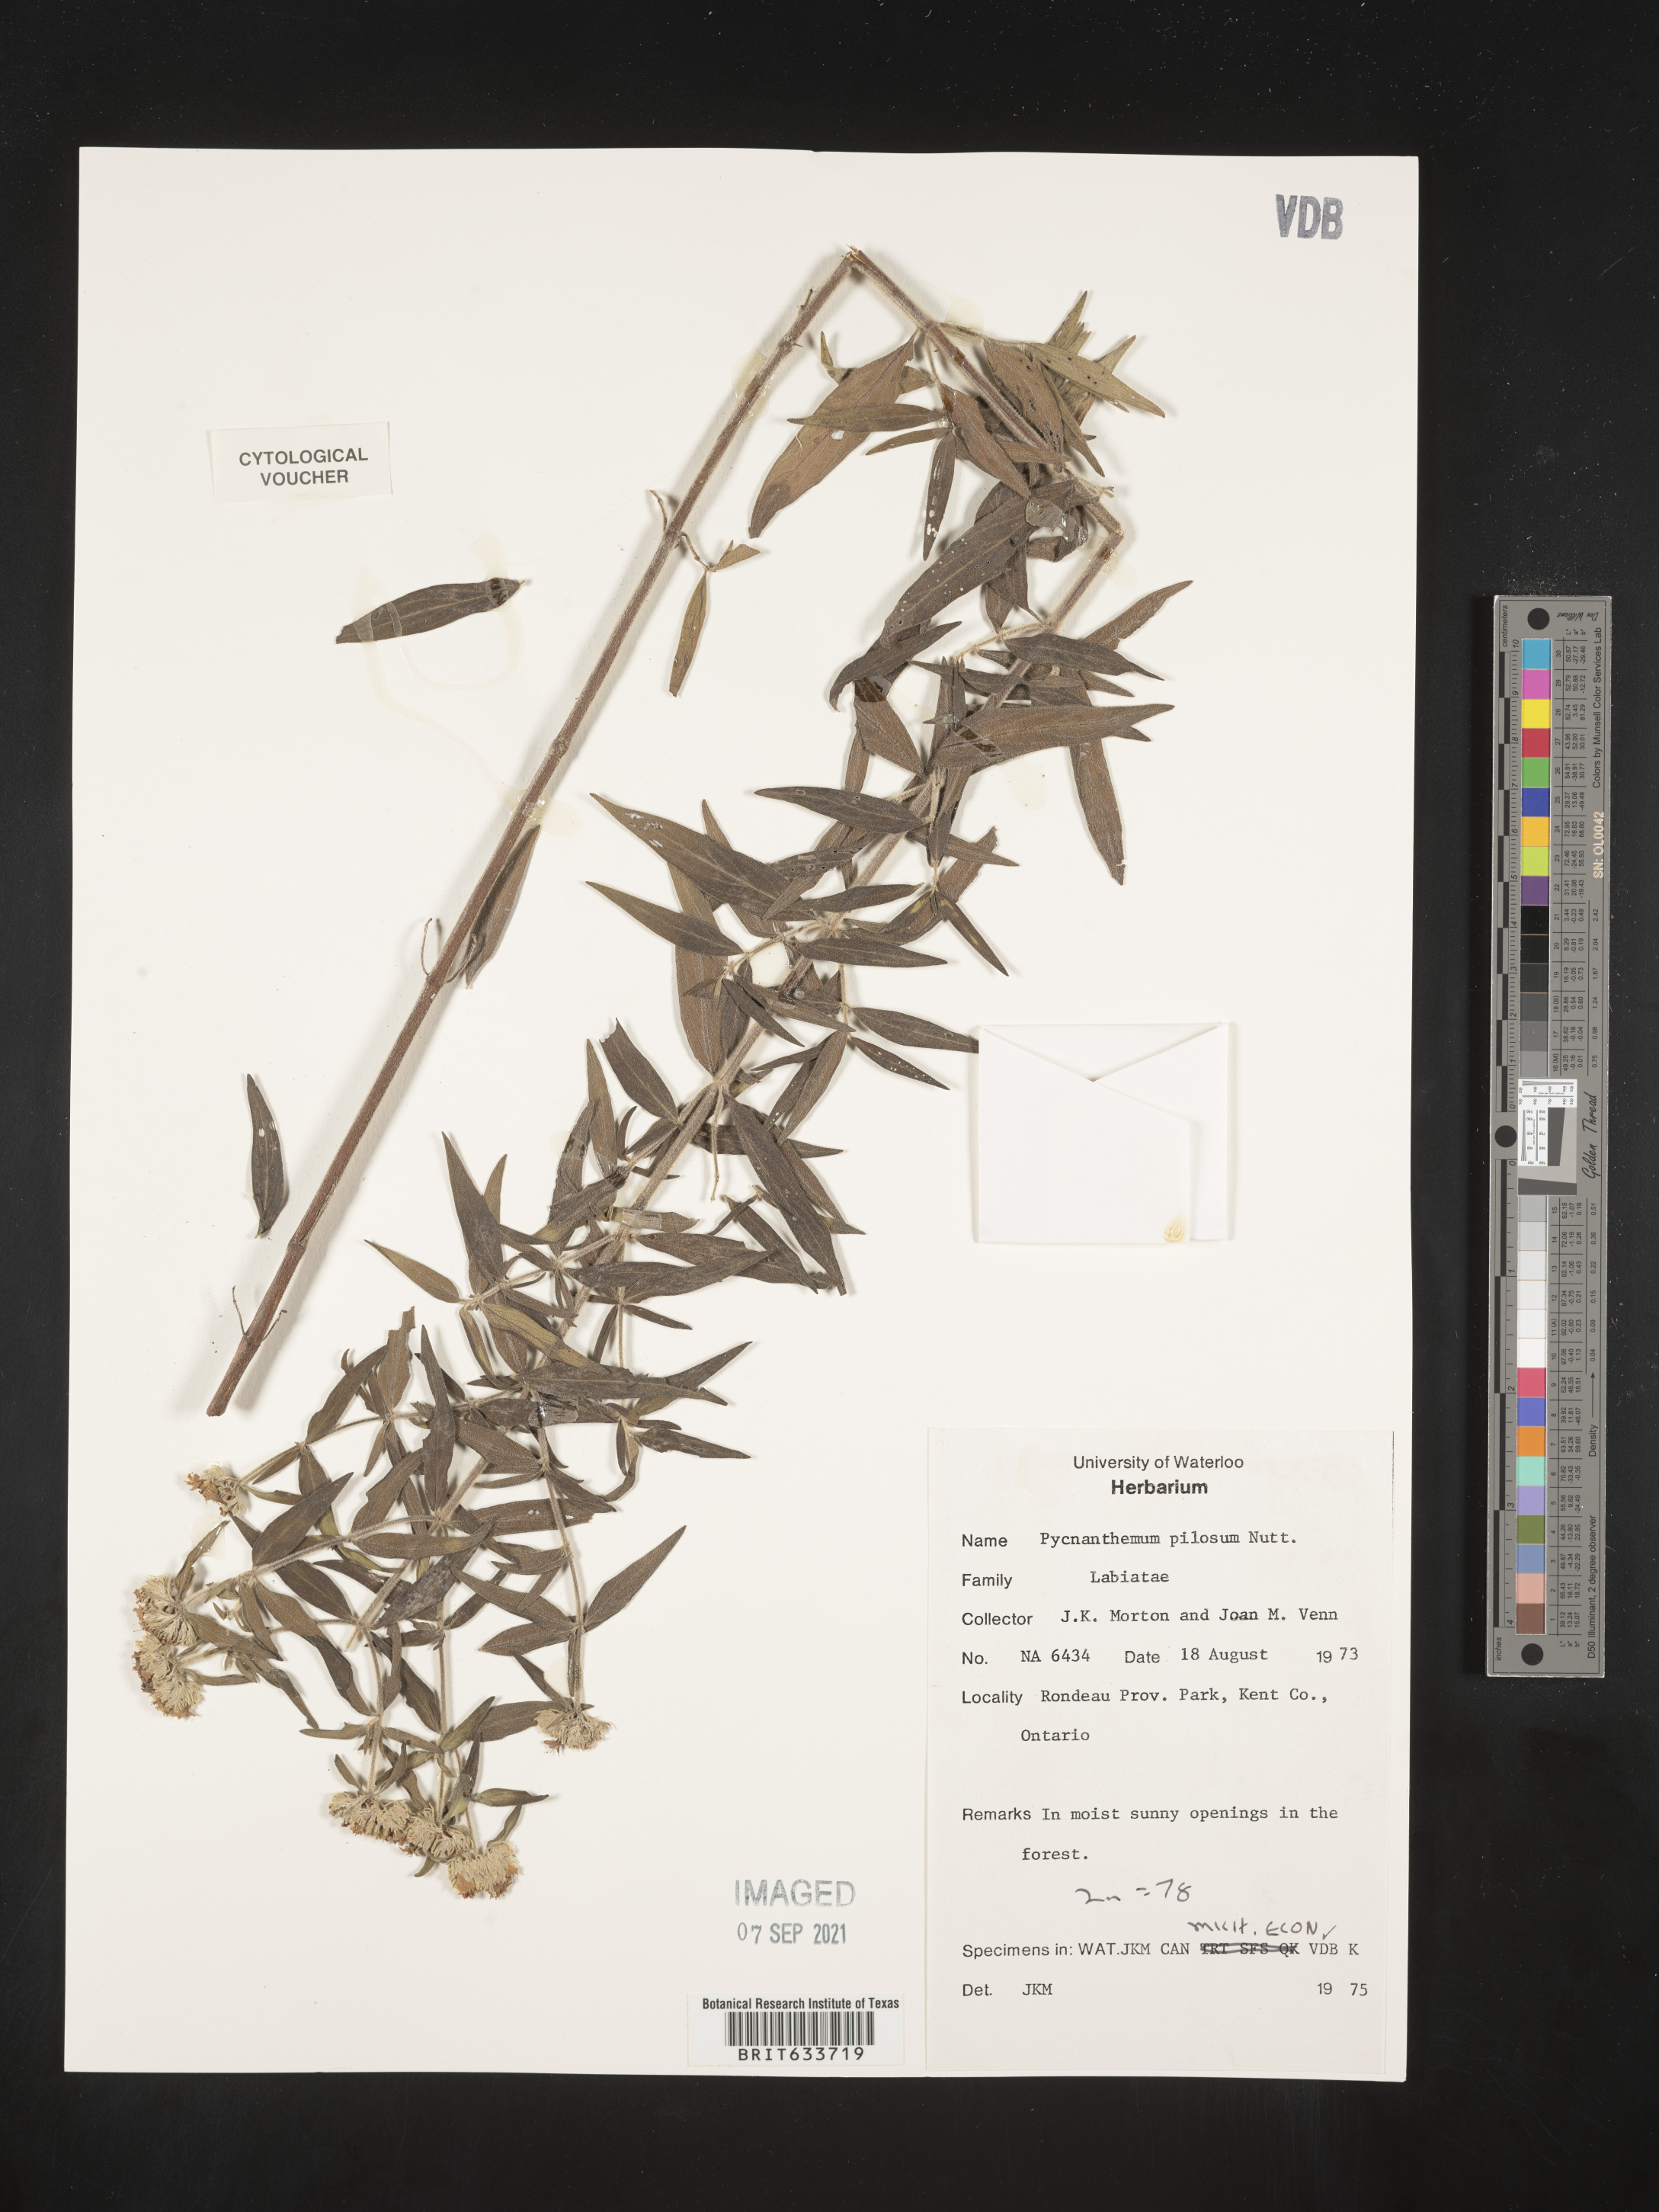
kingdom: Plantae
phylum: Tracheophyta
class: Magnoliopsida
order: Lamiales
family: Lamiaceae
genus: Pycnanthemum
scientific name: Pycnanthemum
